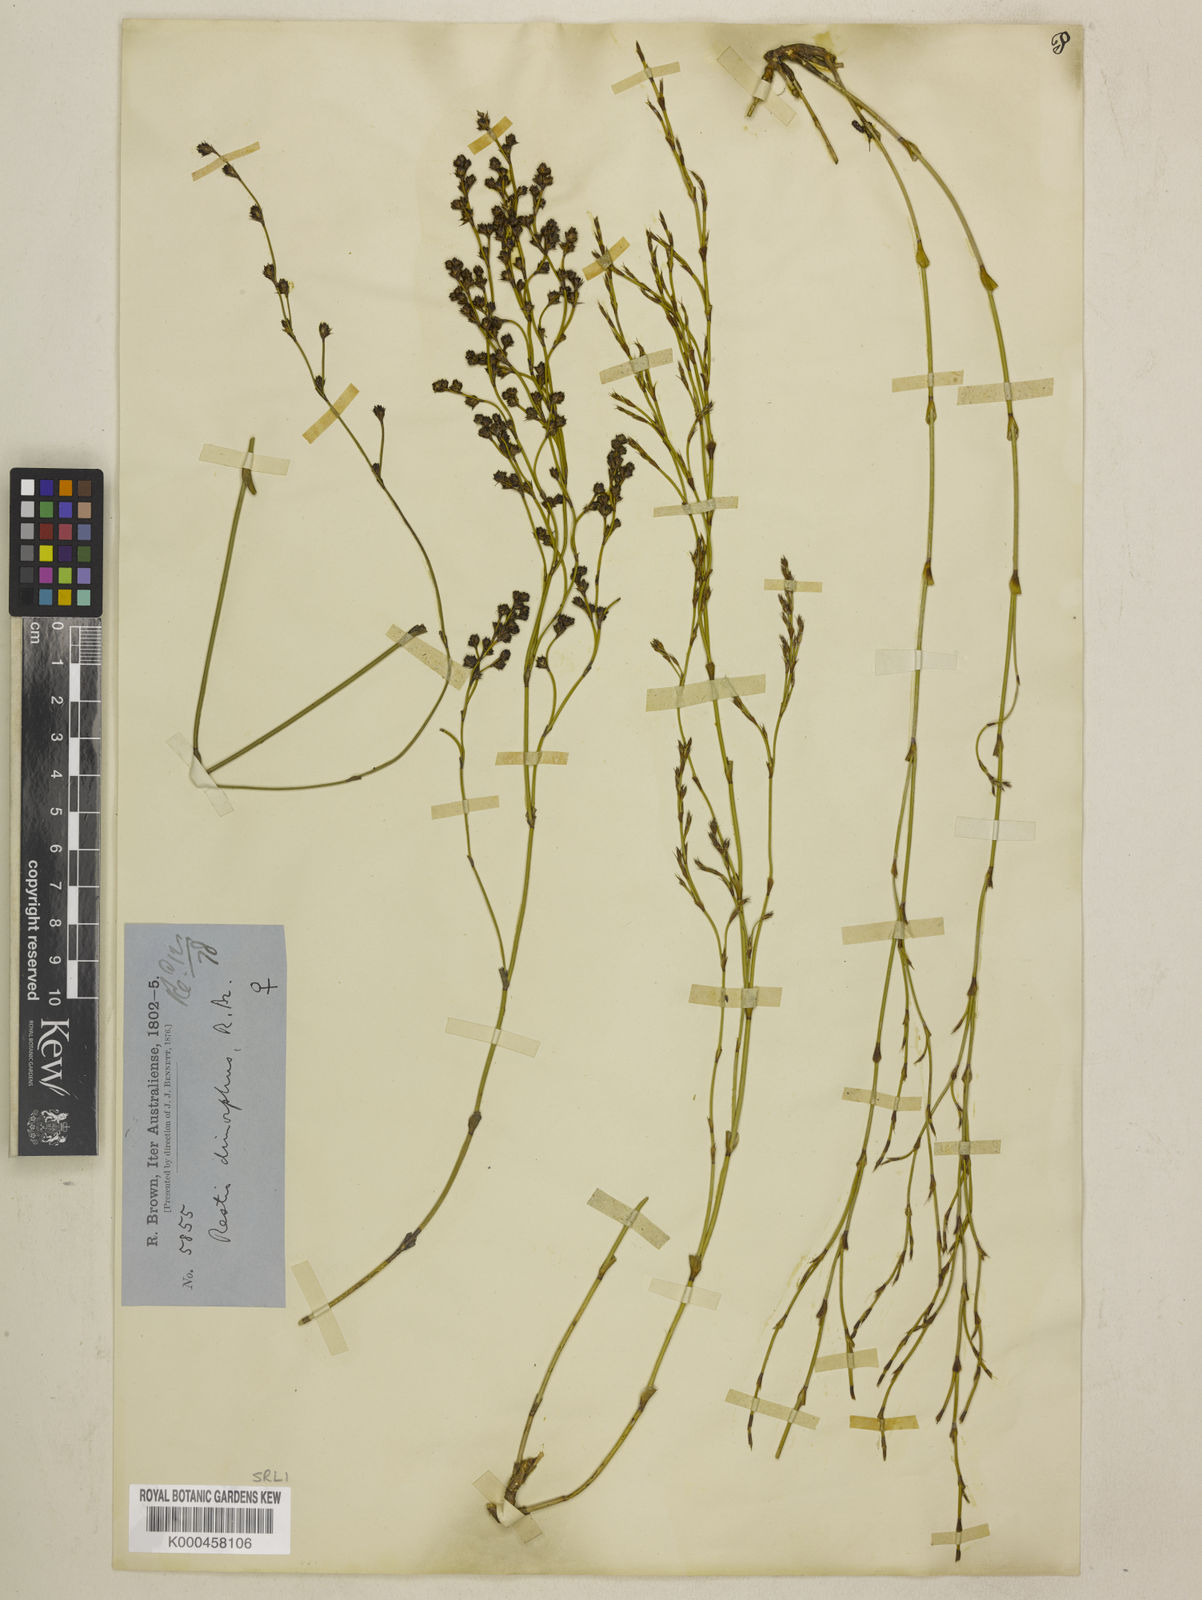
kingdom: Plantae
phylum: Tracheophyta
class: Liliopsida
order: Poales
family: Restionaceae
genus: Chordifex
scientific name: Chordifex dimorphus
